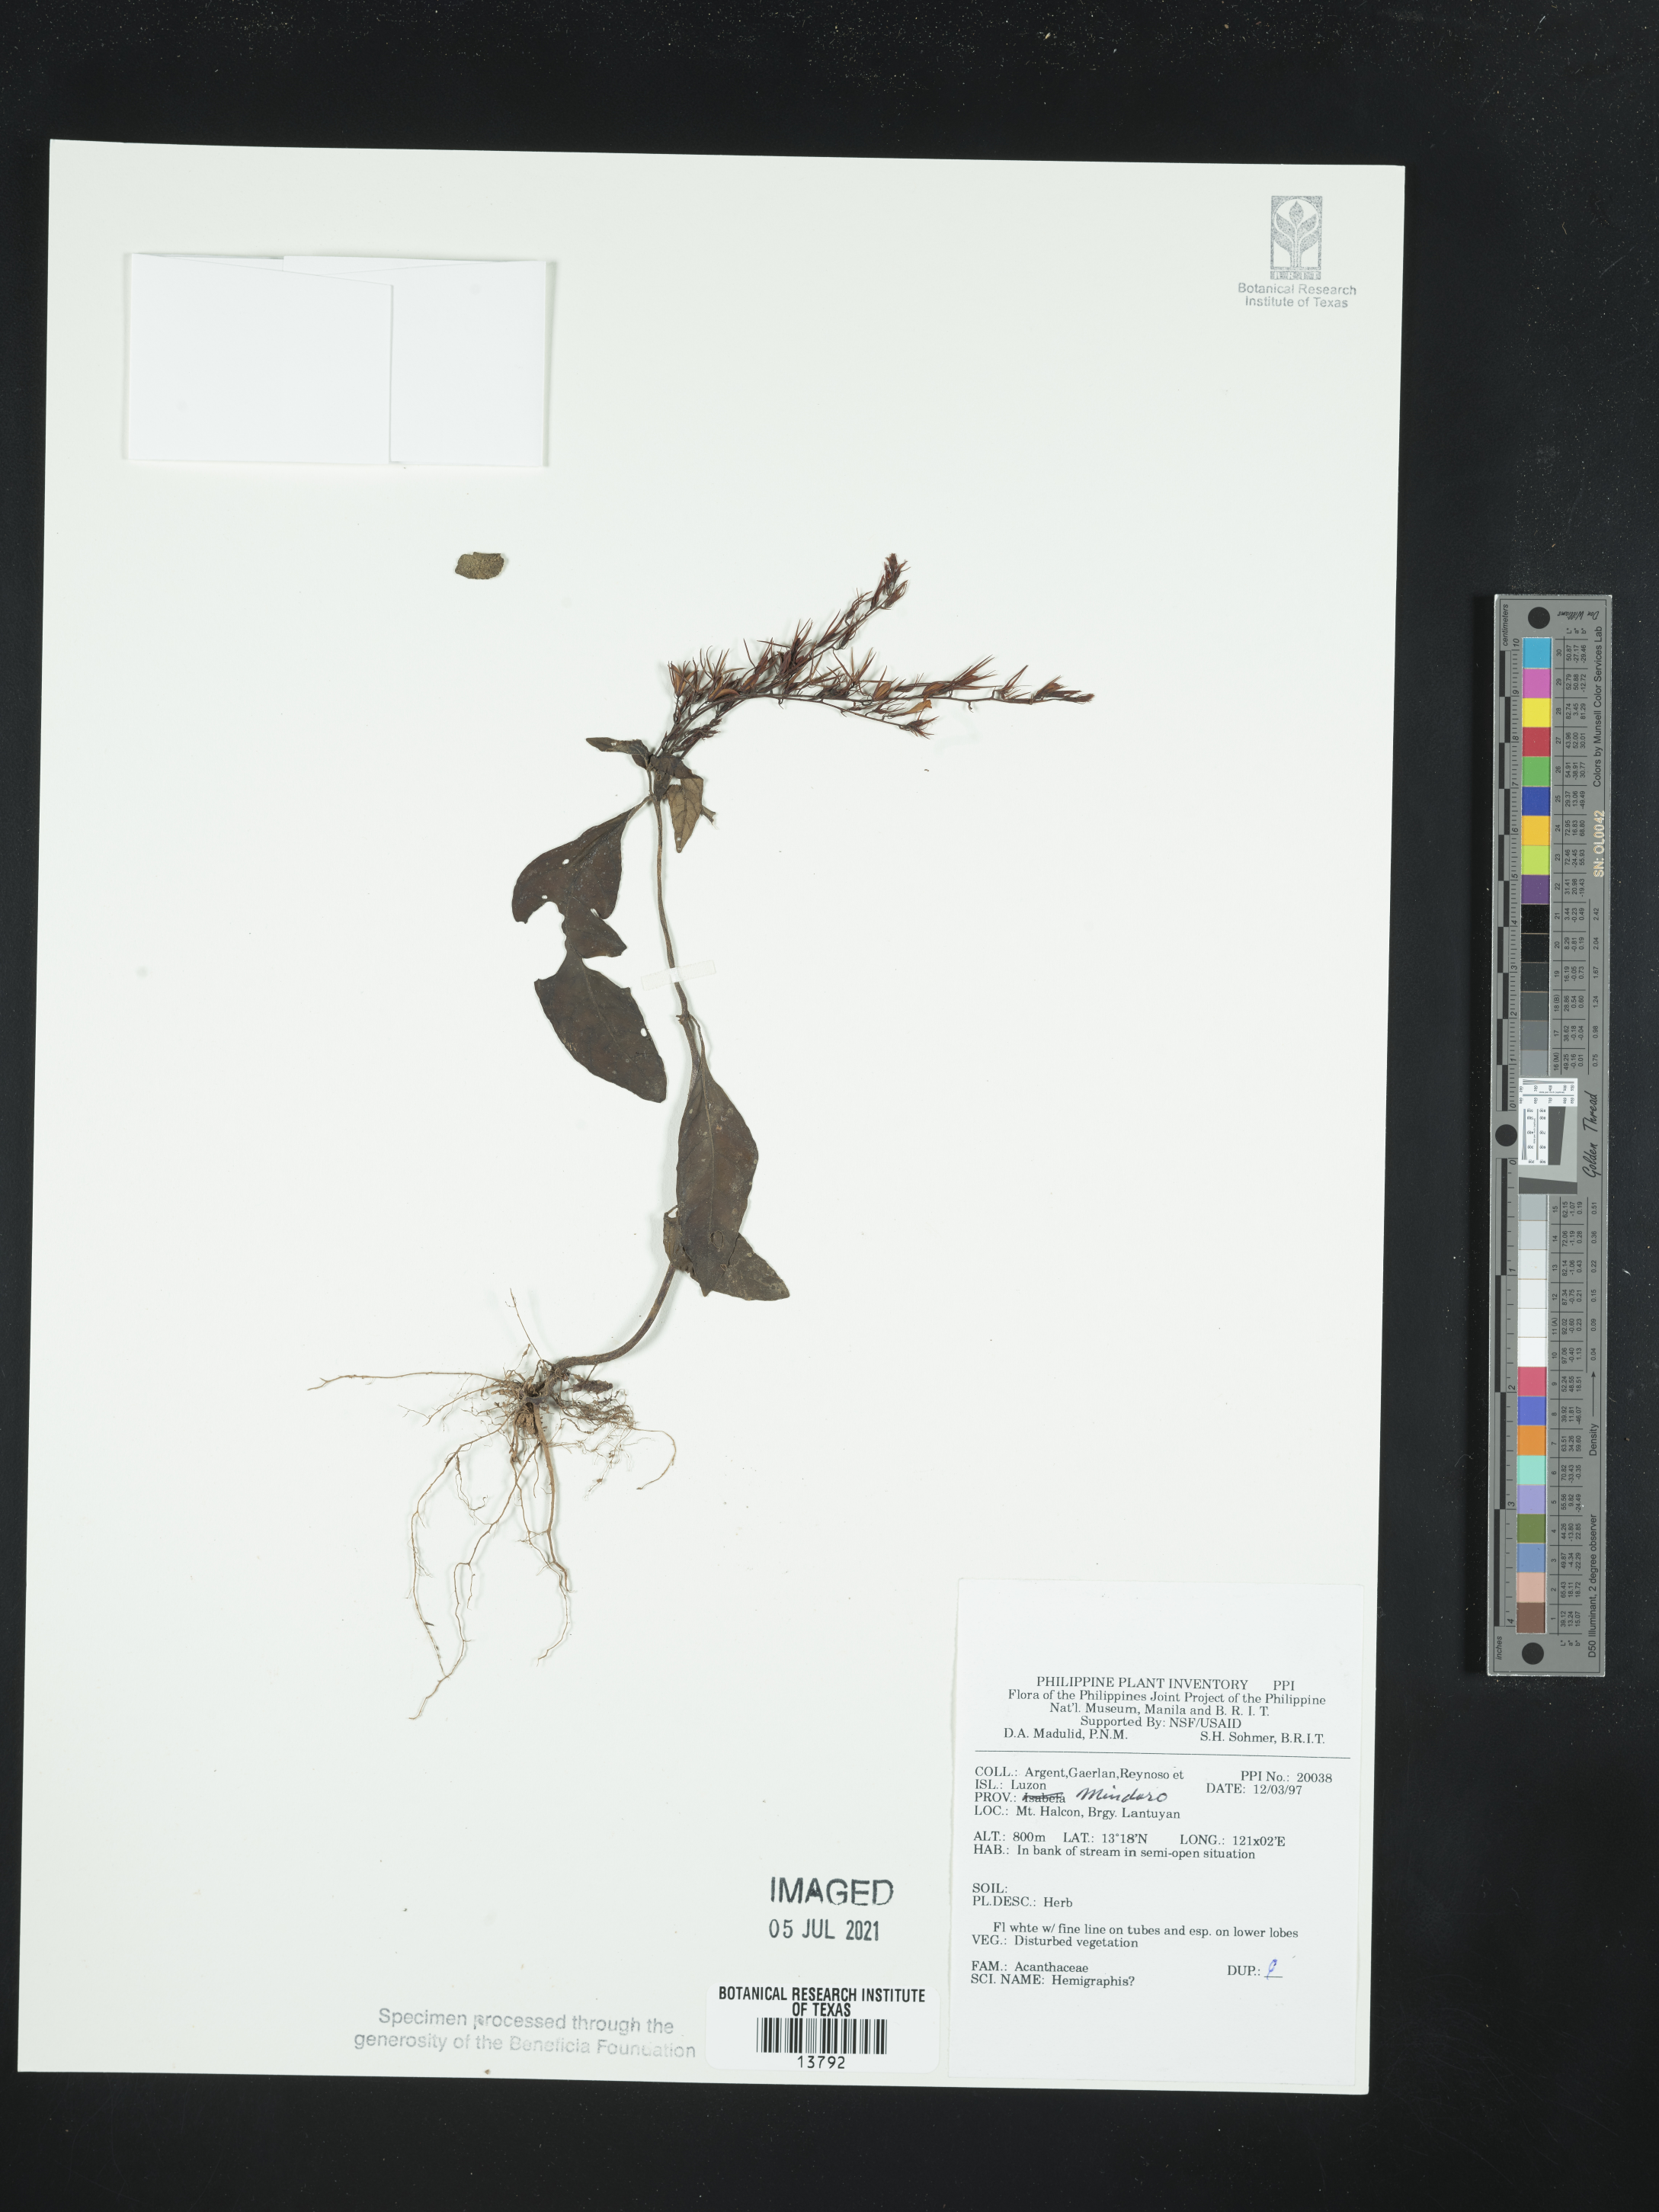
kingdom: Plantae
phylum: Tracheophyta
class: Magnoliopsida
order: Lamiales
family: Acanthaceae
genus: Hemigraphis
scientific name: Hemigraphis
